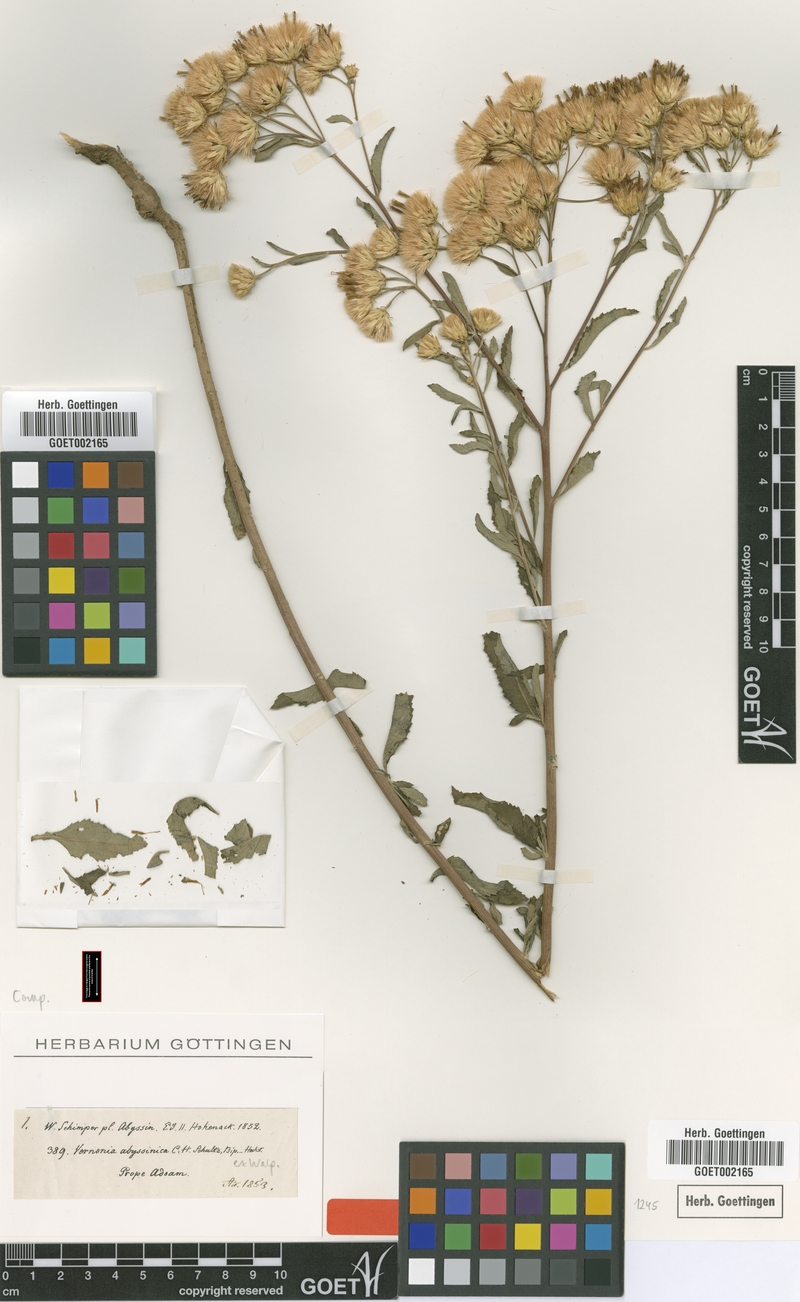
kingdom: Plantae
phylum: Tracheophyta
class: Magnoliopsida
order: Asterales
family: Asteraceae
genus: Baccharoides
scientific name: Baccharoides schimperi
